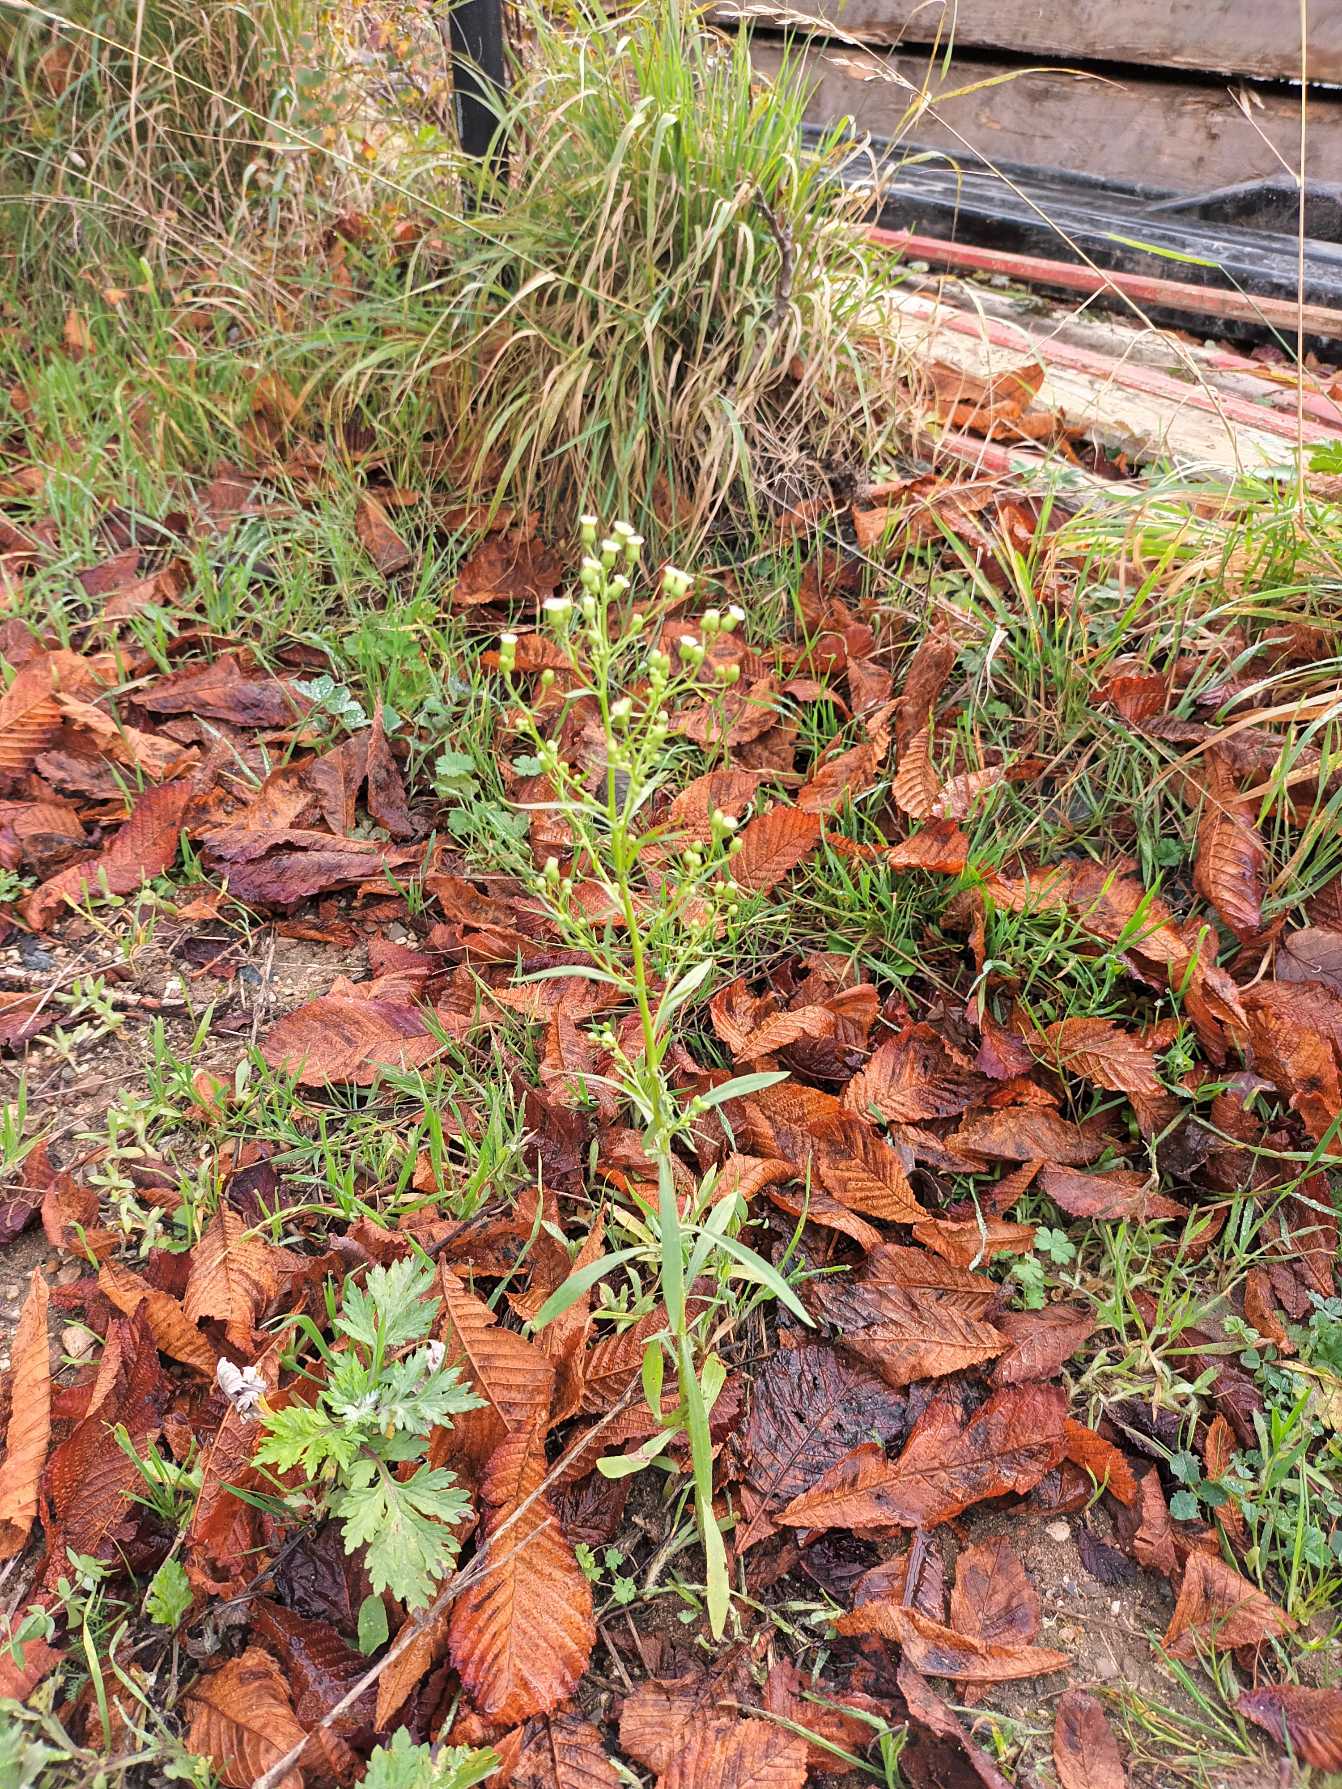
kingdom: Plantae
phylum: Tracheophyta
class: Magnoliopsida
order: Asterales
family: Asteraceae
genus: Erigeron
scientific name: Erigeron canadensis
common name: Kanadisk bakkestjerne
